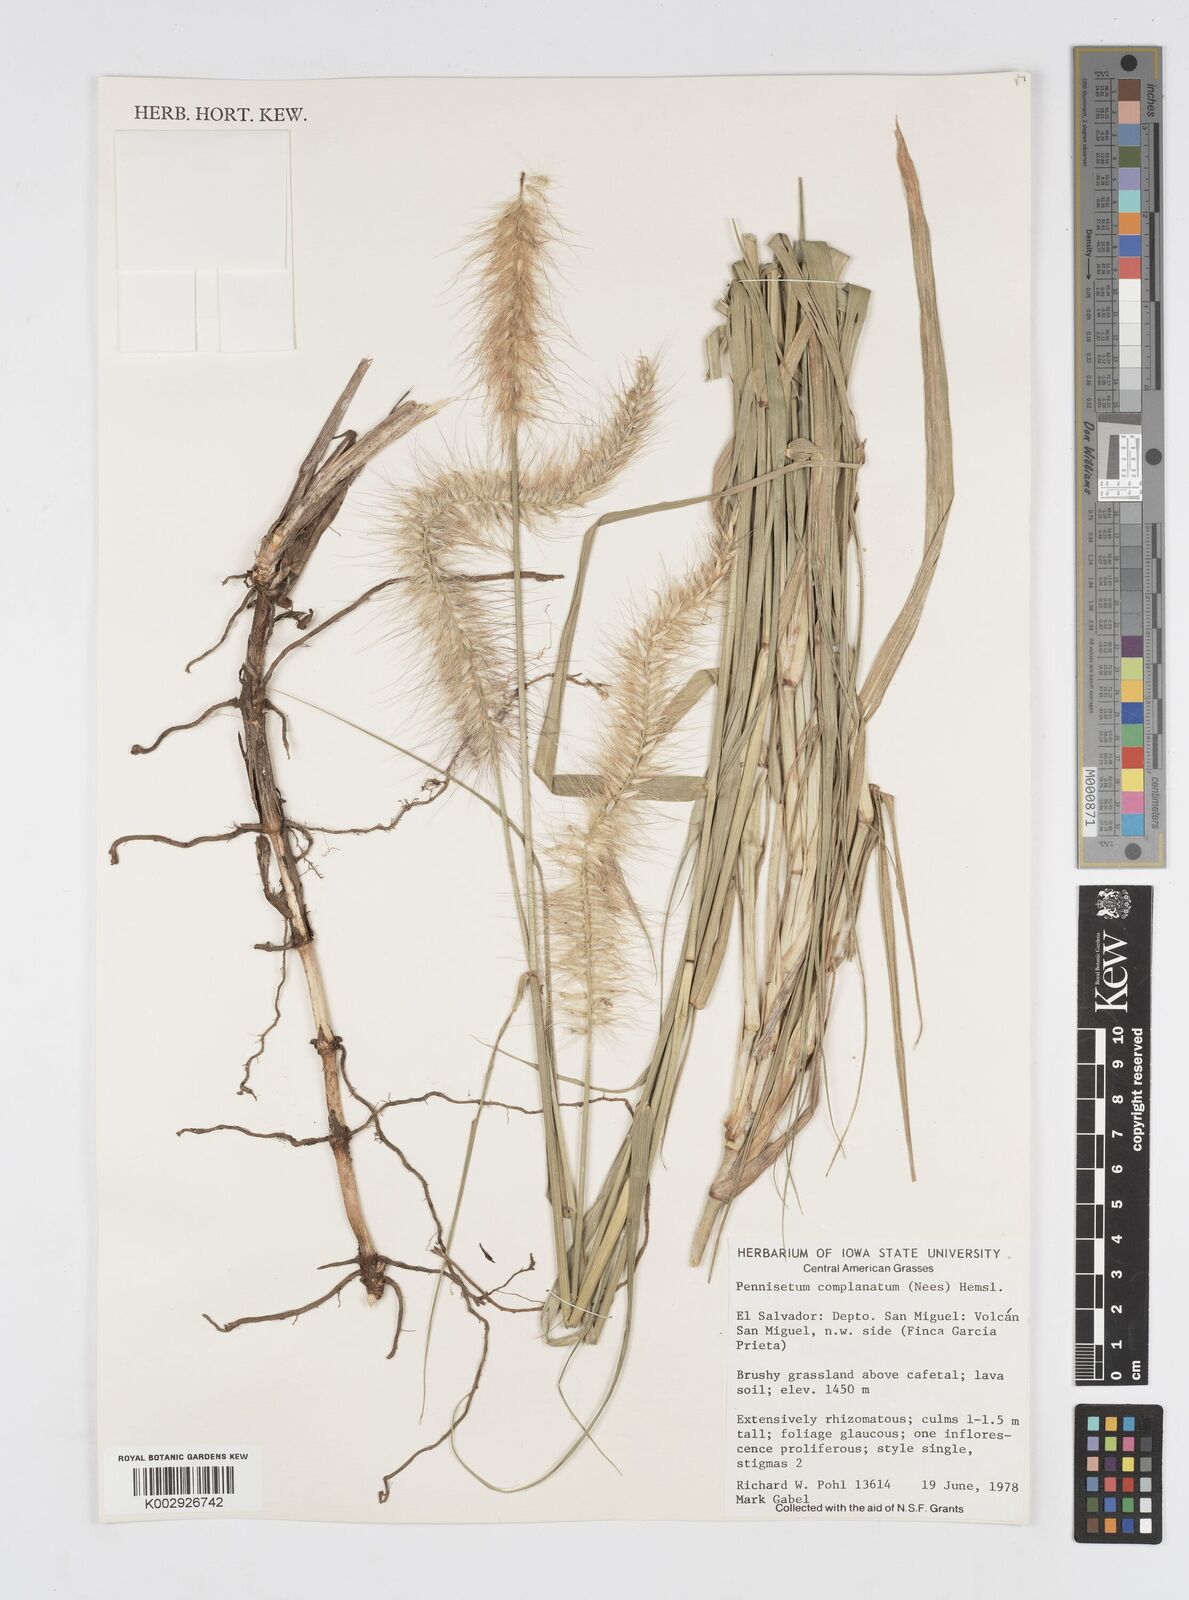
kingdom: Plantae
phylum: Tracheophyta
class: Liliopsida
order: Poales
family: Poaceae
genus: Cenchrus
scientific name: Cenchrus complanatus
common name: Nicaraguan fountaingrass
